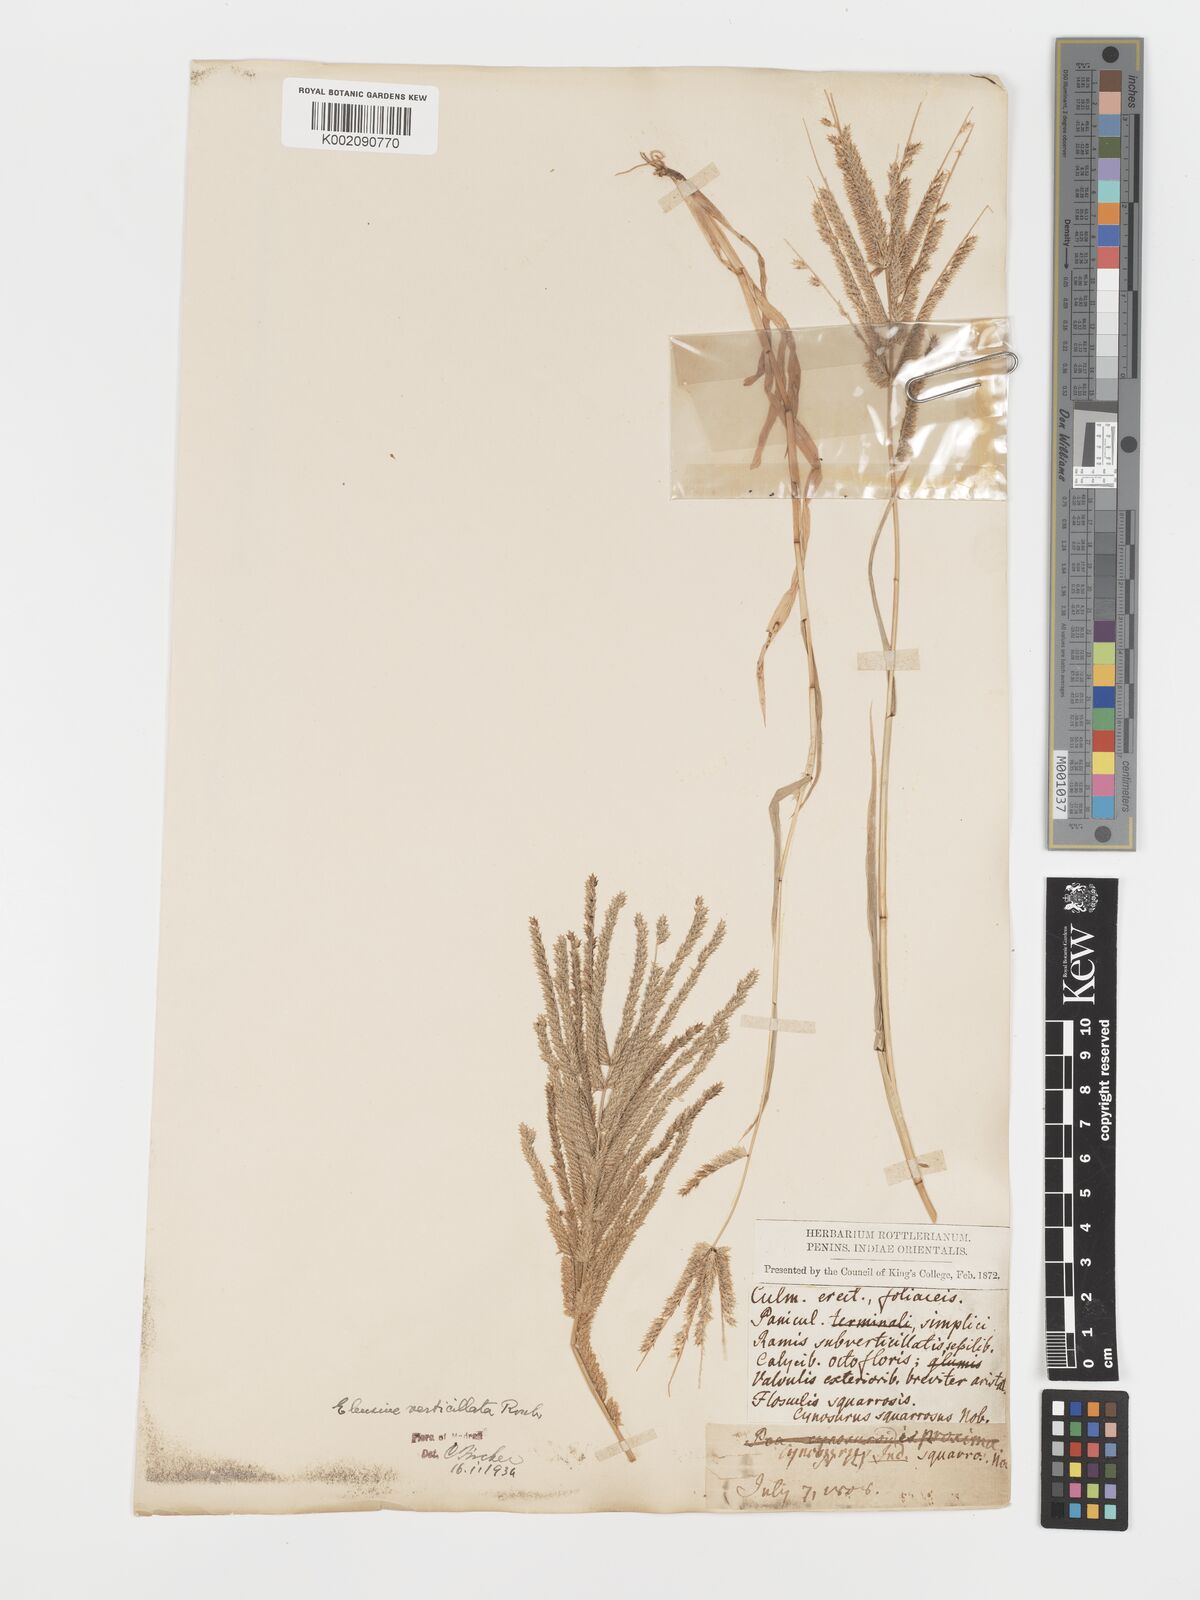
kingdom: Plantae
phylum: Tracheophyta
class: Liliopsida
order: Poales
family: Poaceae
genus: Acrachne
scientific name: Acrachne racemosa
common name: Goosegrass
